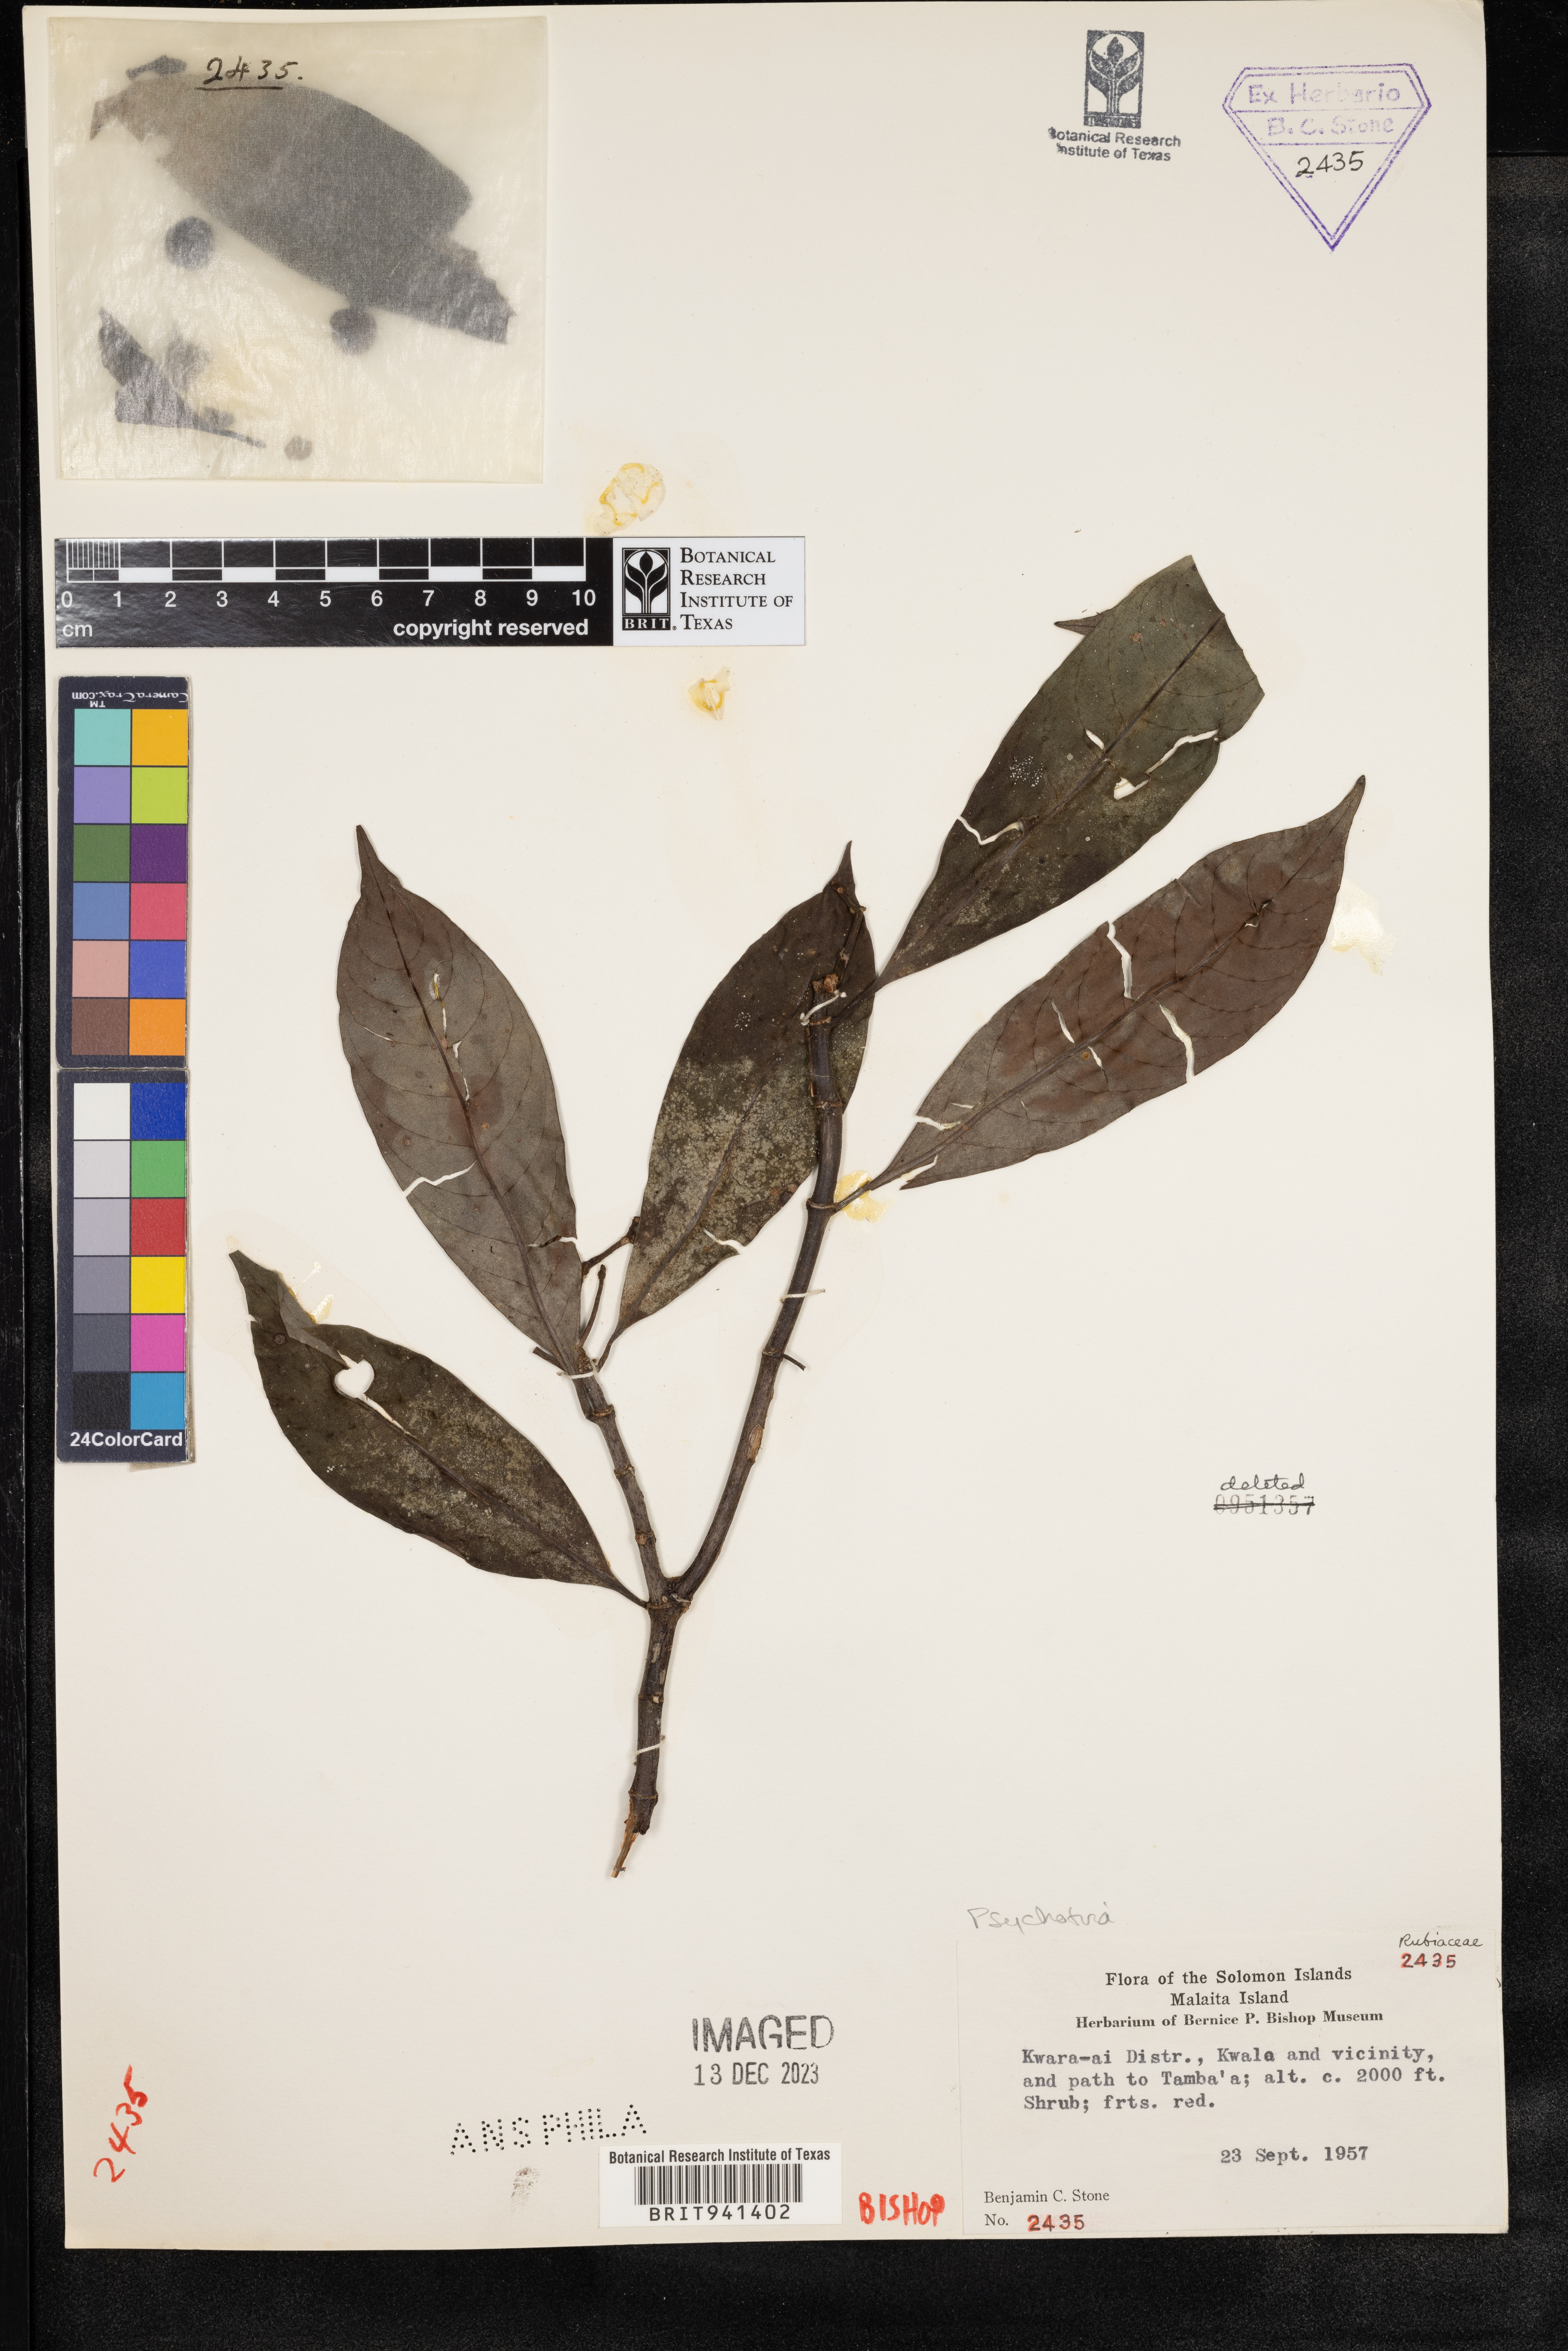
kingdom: Plantae
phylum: Tracheophyta
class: Magnoliopsida
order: Gentianales
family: Rubiaceae
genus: Psychotria
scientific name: Psychotria
